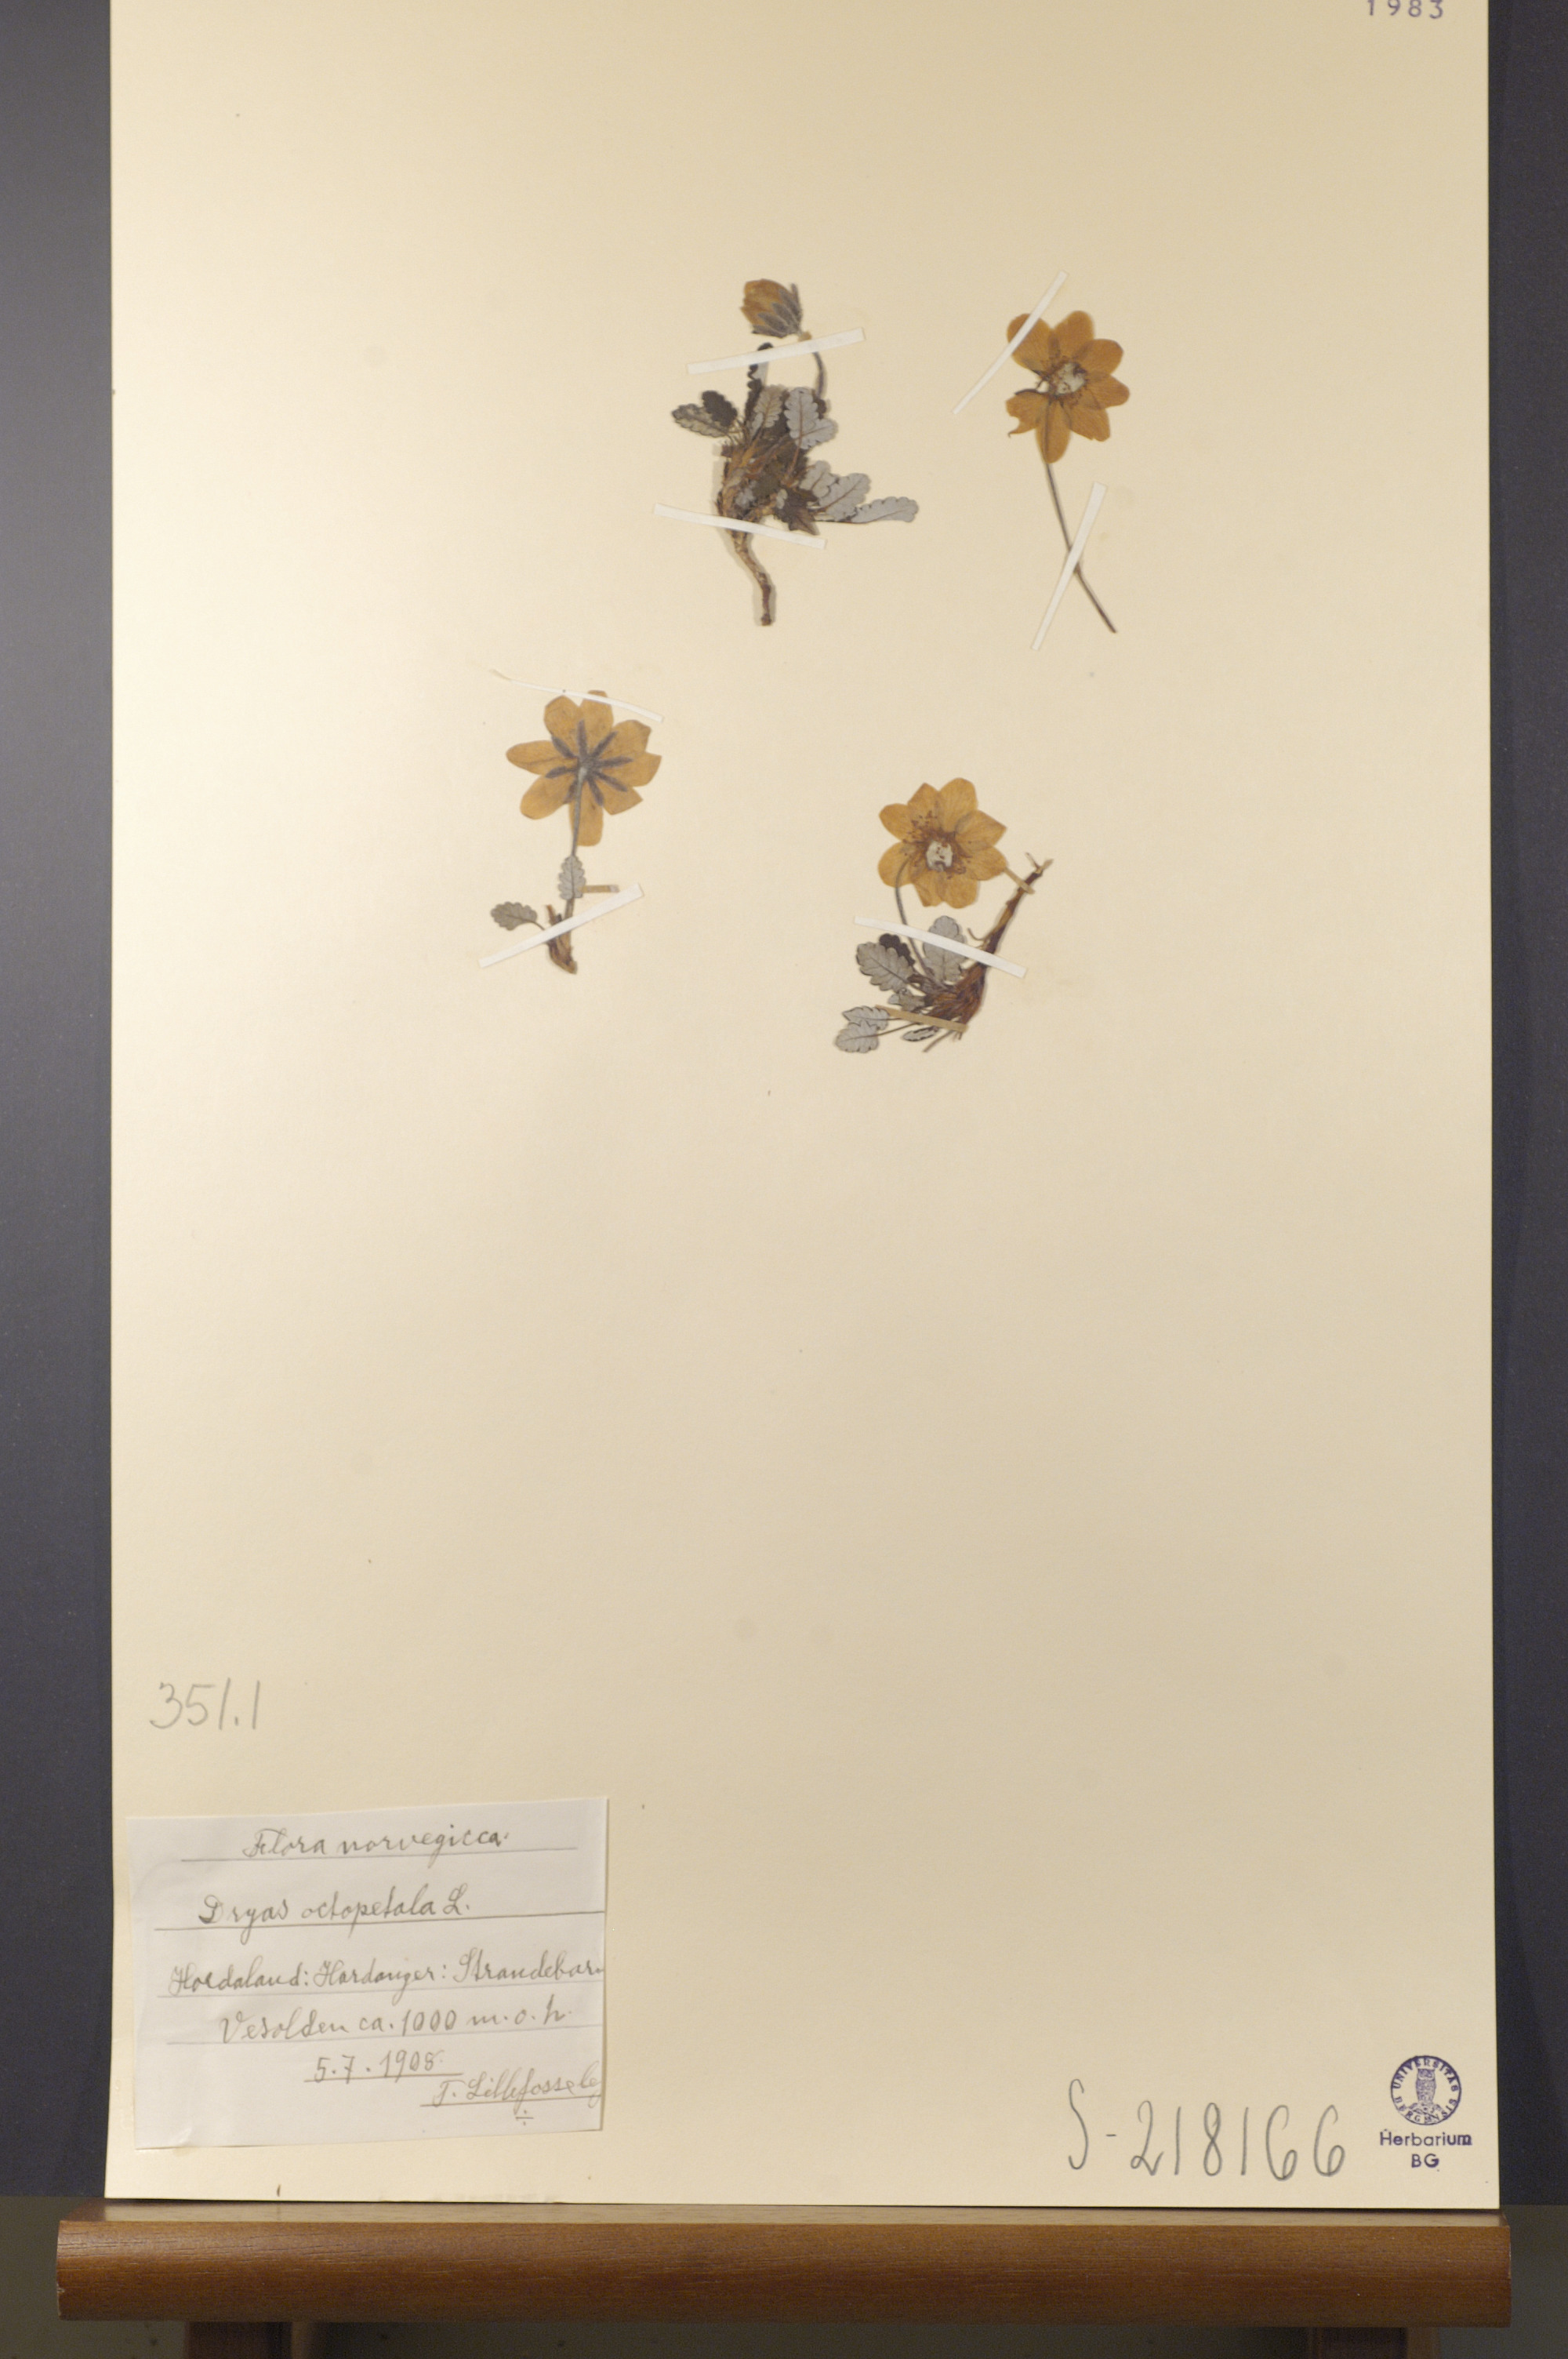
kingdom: Plantae
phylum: Tracheophyta
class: Magnoliopsida
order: Rosales
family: Rosaceae
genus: Dryas
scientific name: Dryas octopetala
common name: Eight-petal mountain-avens
